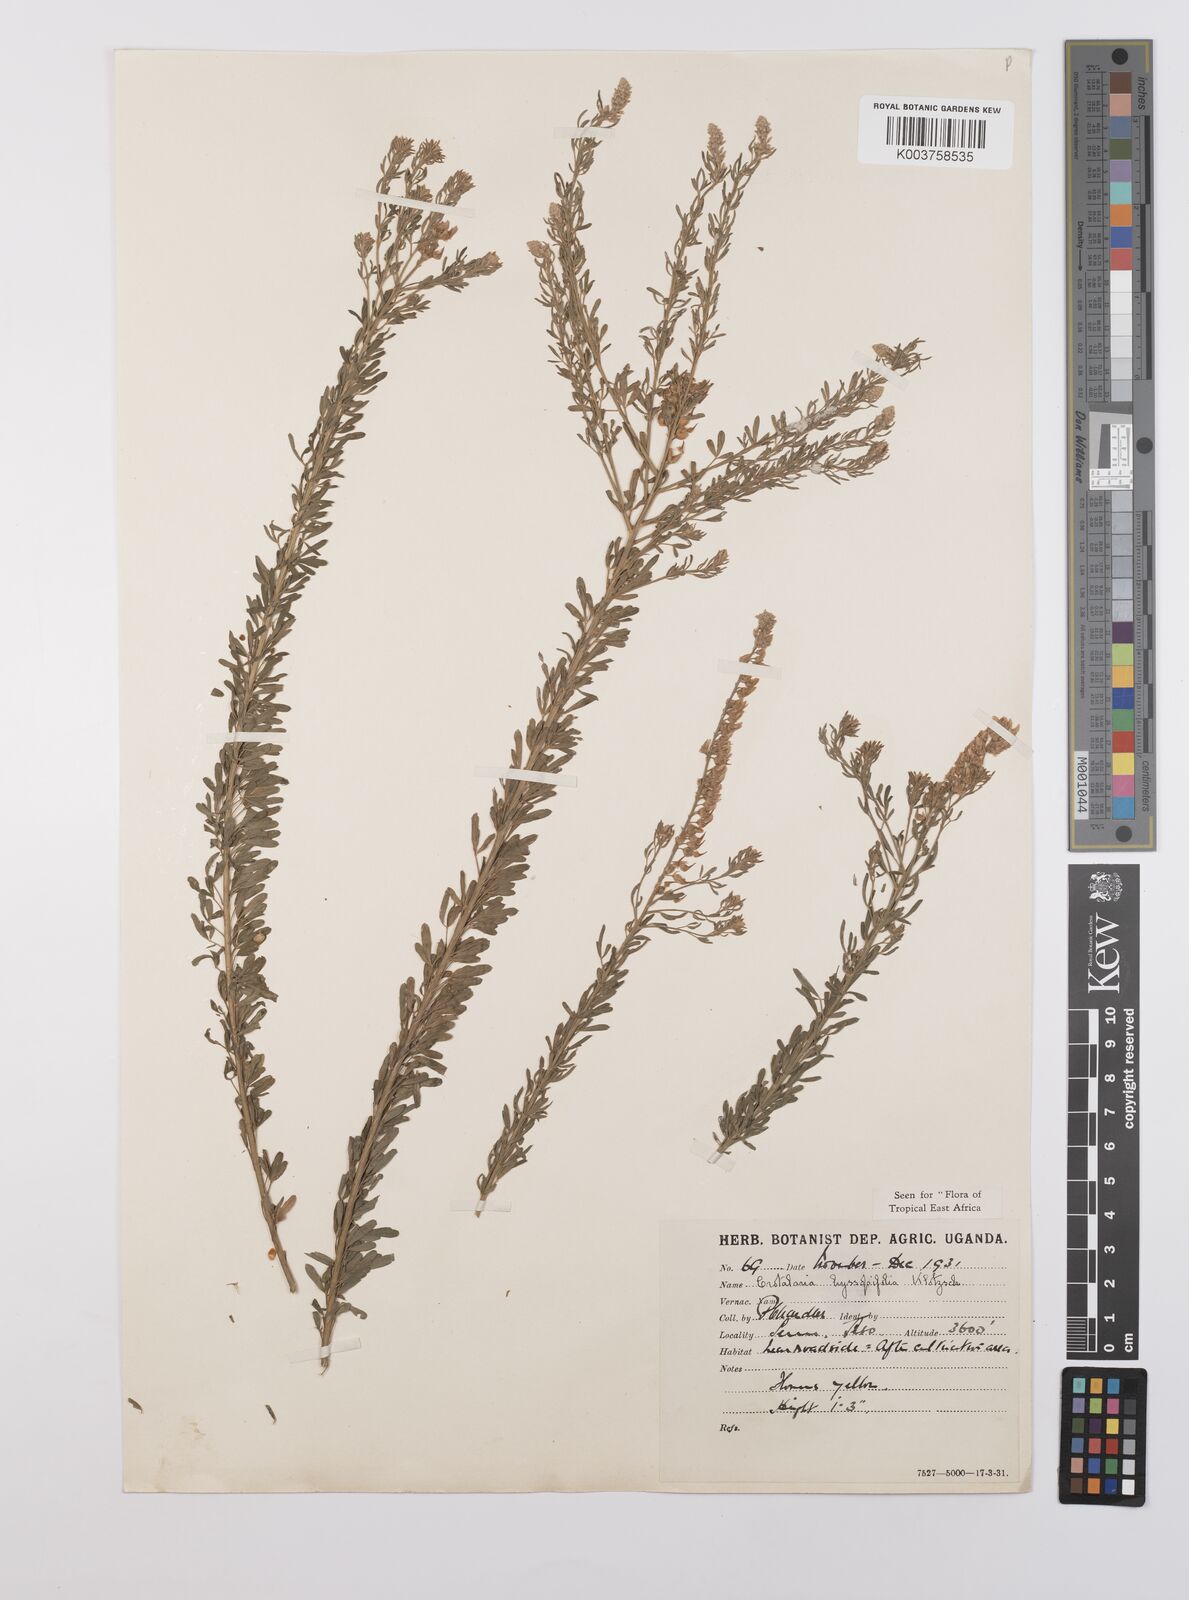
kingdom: Plantae
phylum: Tracheophyta
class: Magnoliopsida
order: Fabales
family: Fabaceae
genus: Crotalaria
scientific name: Crotalaria hyssopifolia
